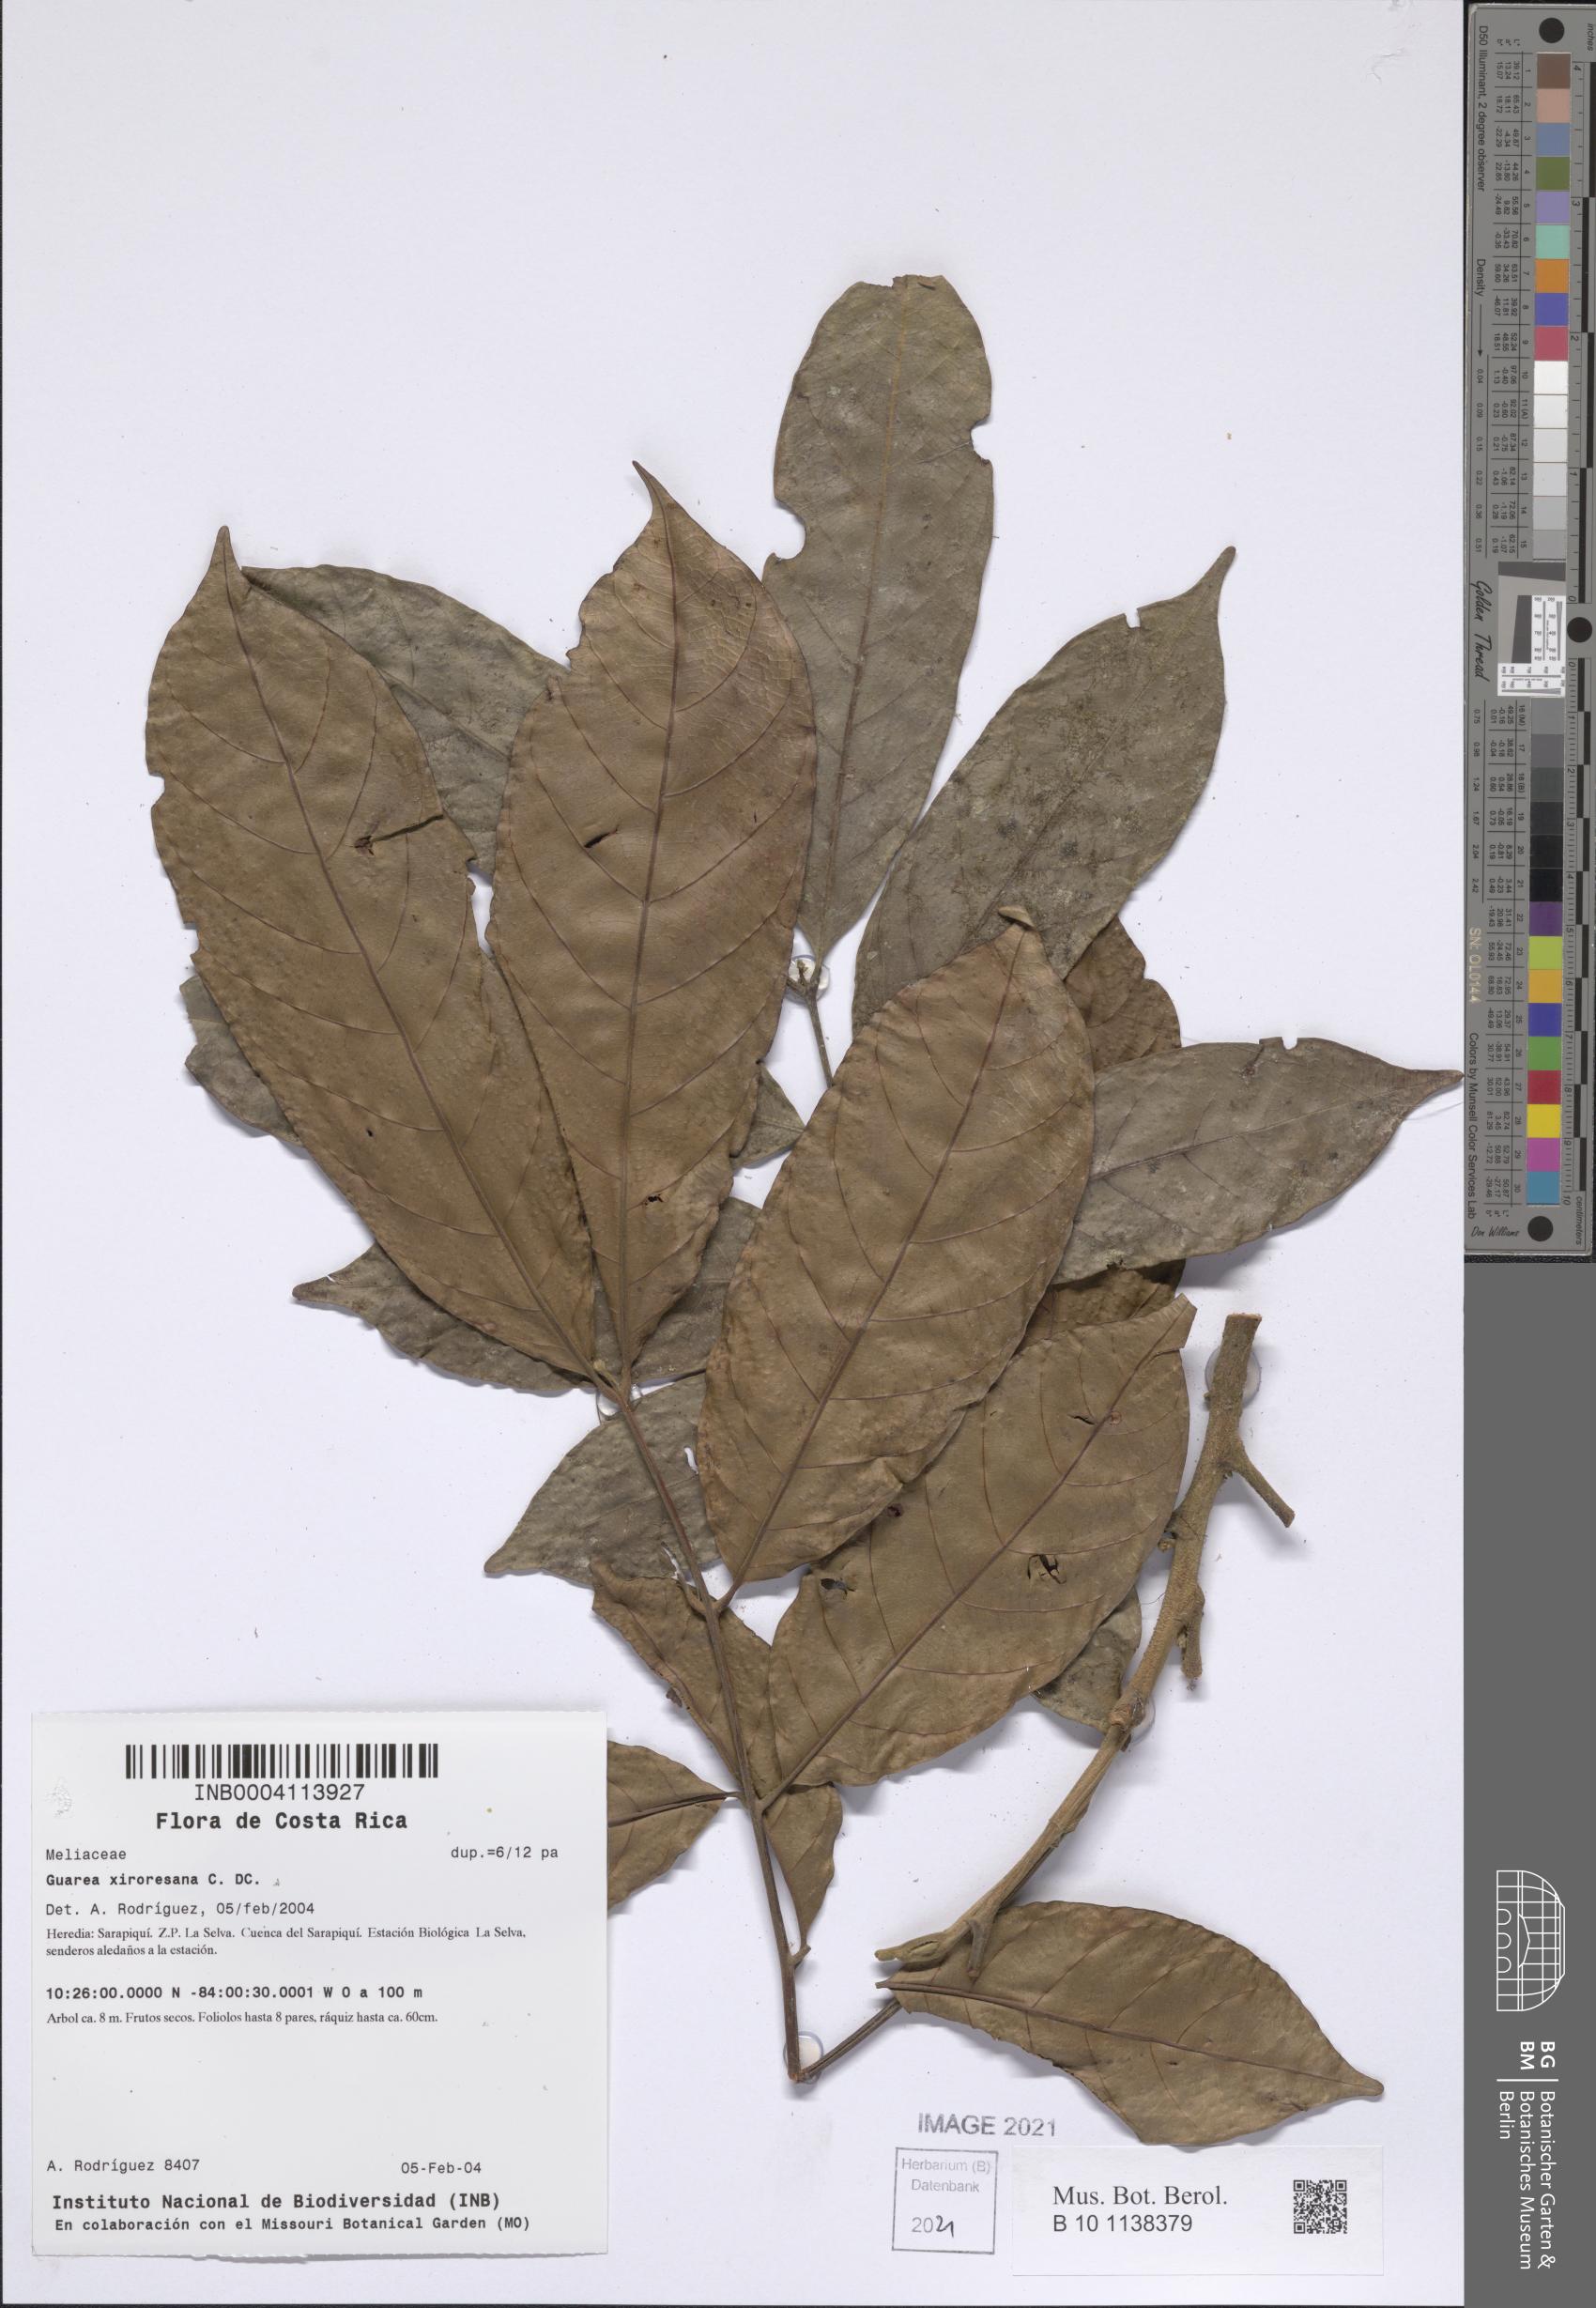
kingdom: Plantae
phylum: Tracheophyta
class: Magnoliopsida
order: Sapindales
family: Meliaceae
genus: Guarea
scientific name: Guarea guidonia
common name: American muskwood
